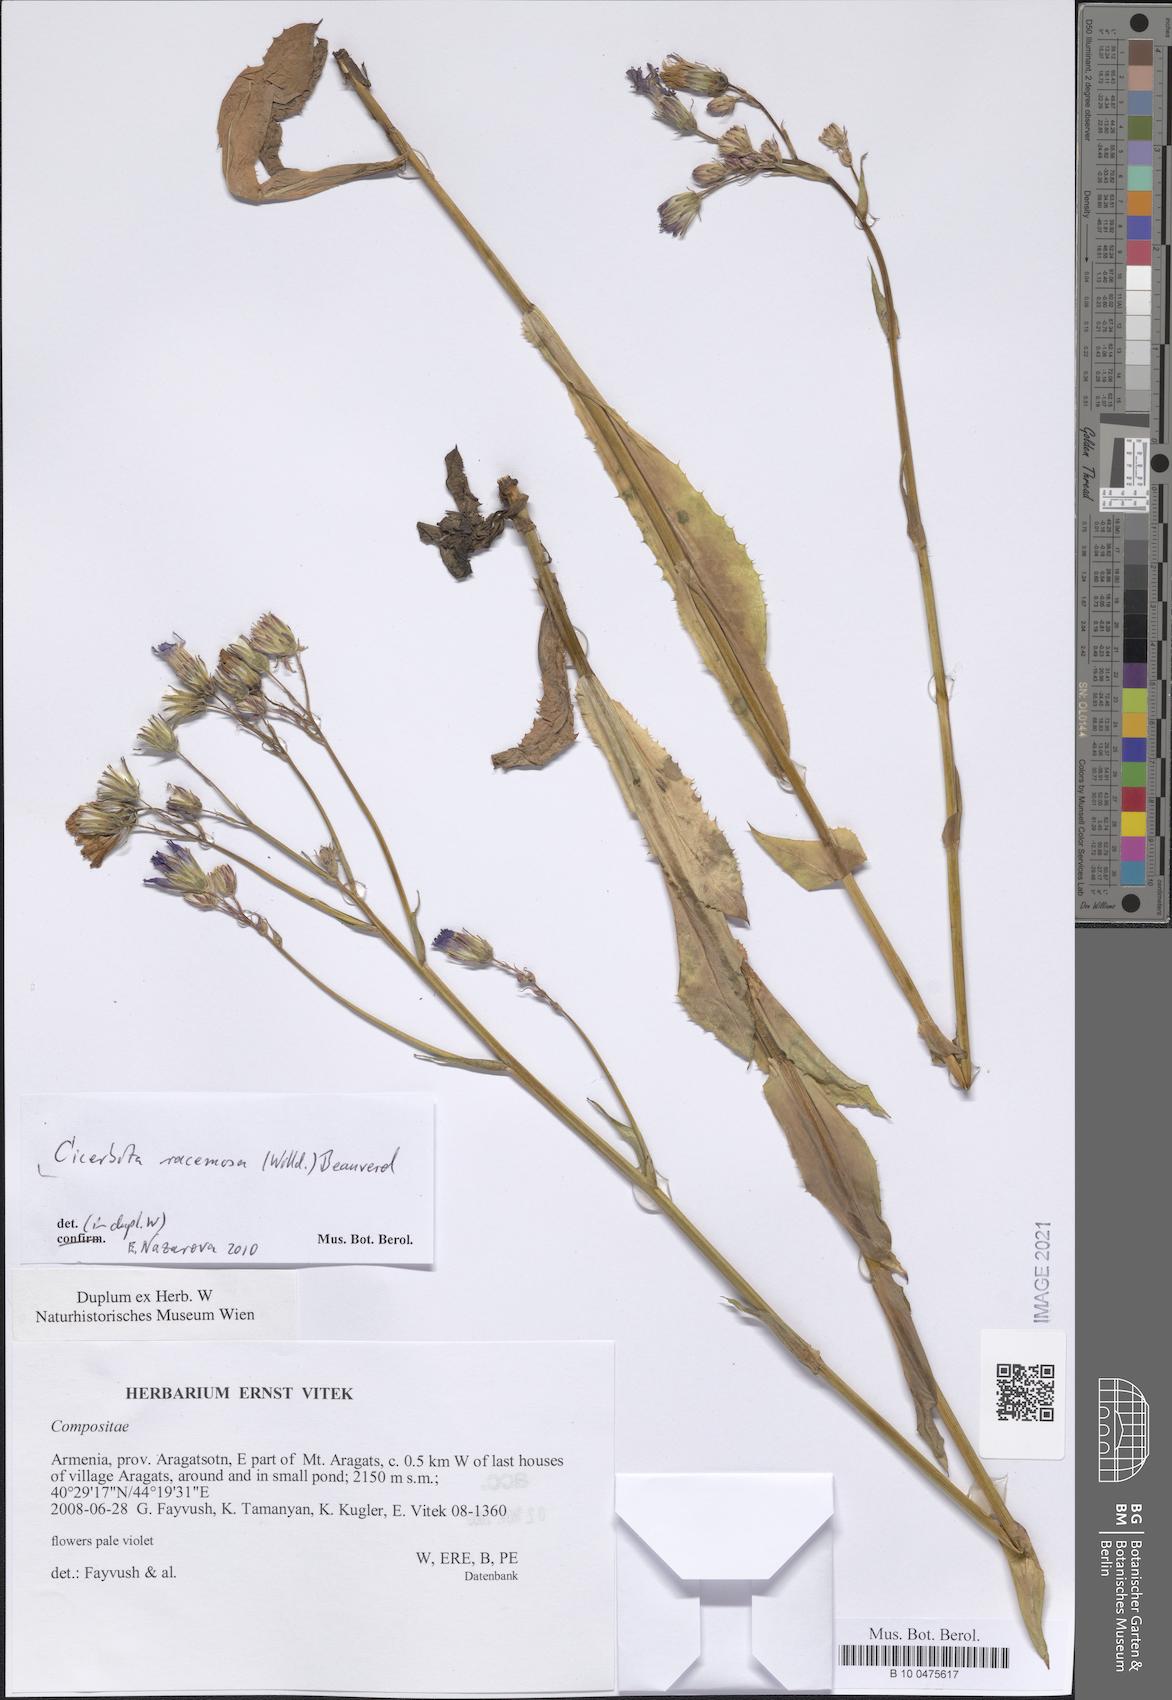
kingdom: Plantae
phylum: Tracheophyta
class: Magnoliopsida
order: Asterales
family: Asteraceae
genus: Lactuca
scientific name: Lactuca racemosa
